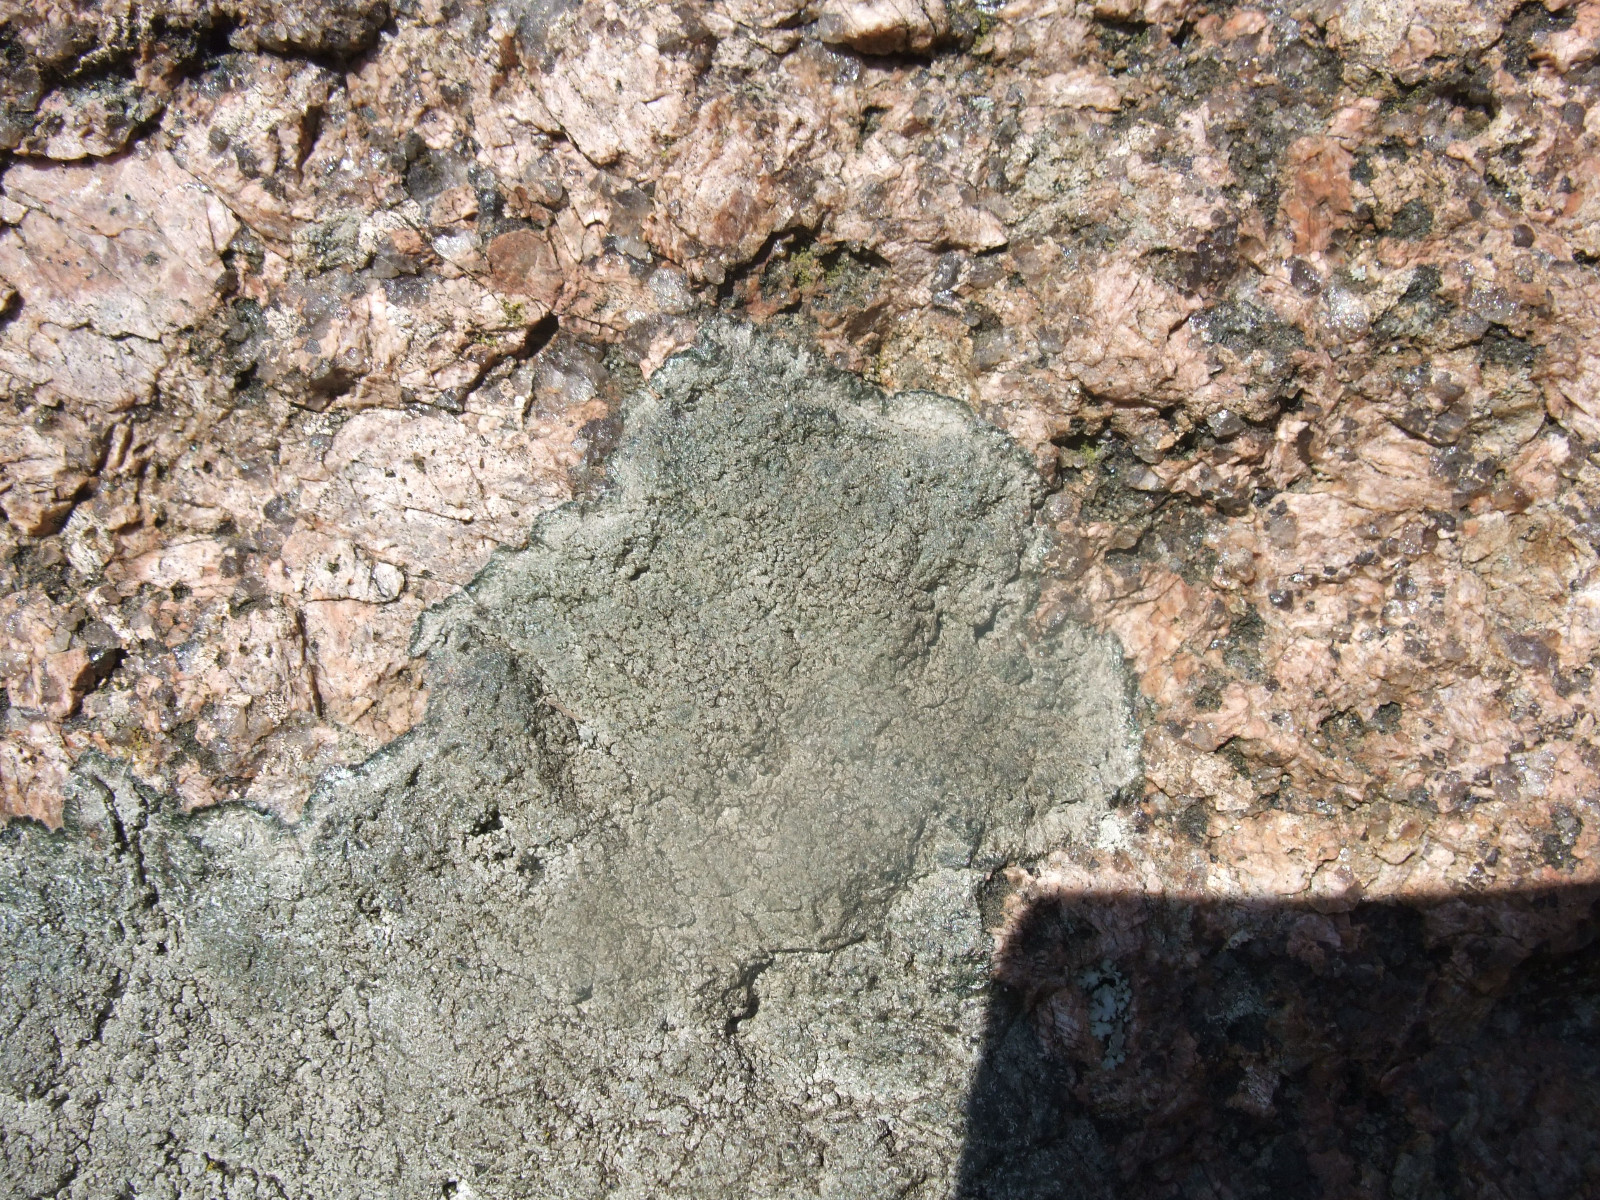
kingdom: Fungi
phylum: Ascomycota
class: Lecanoromycetes
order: Pertusariales
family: Megasporaceae
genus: Circinaria
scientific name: Circinaria caesiocinerea
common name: fuglestens-hulskivelav
